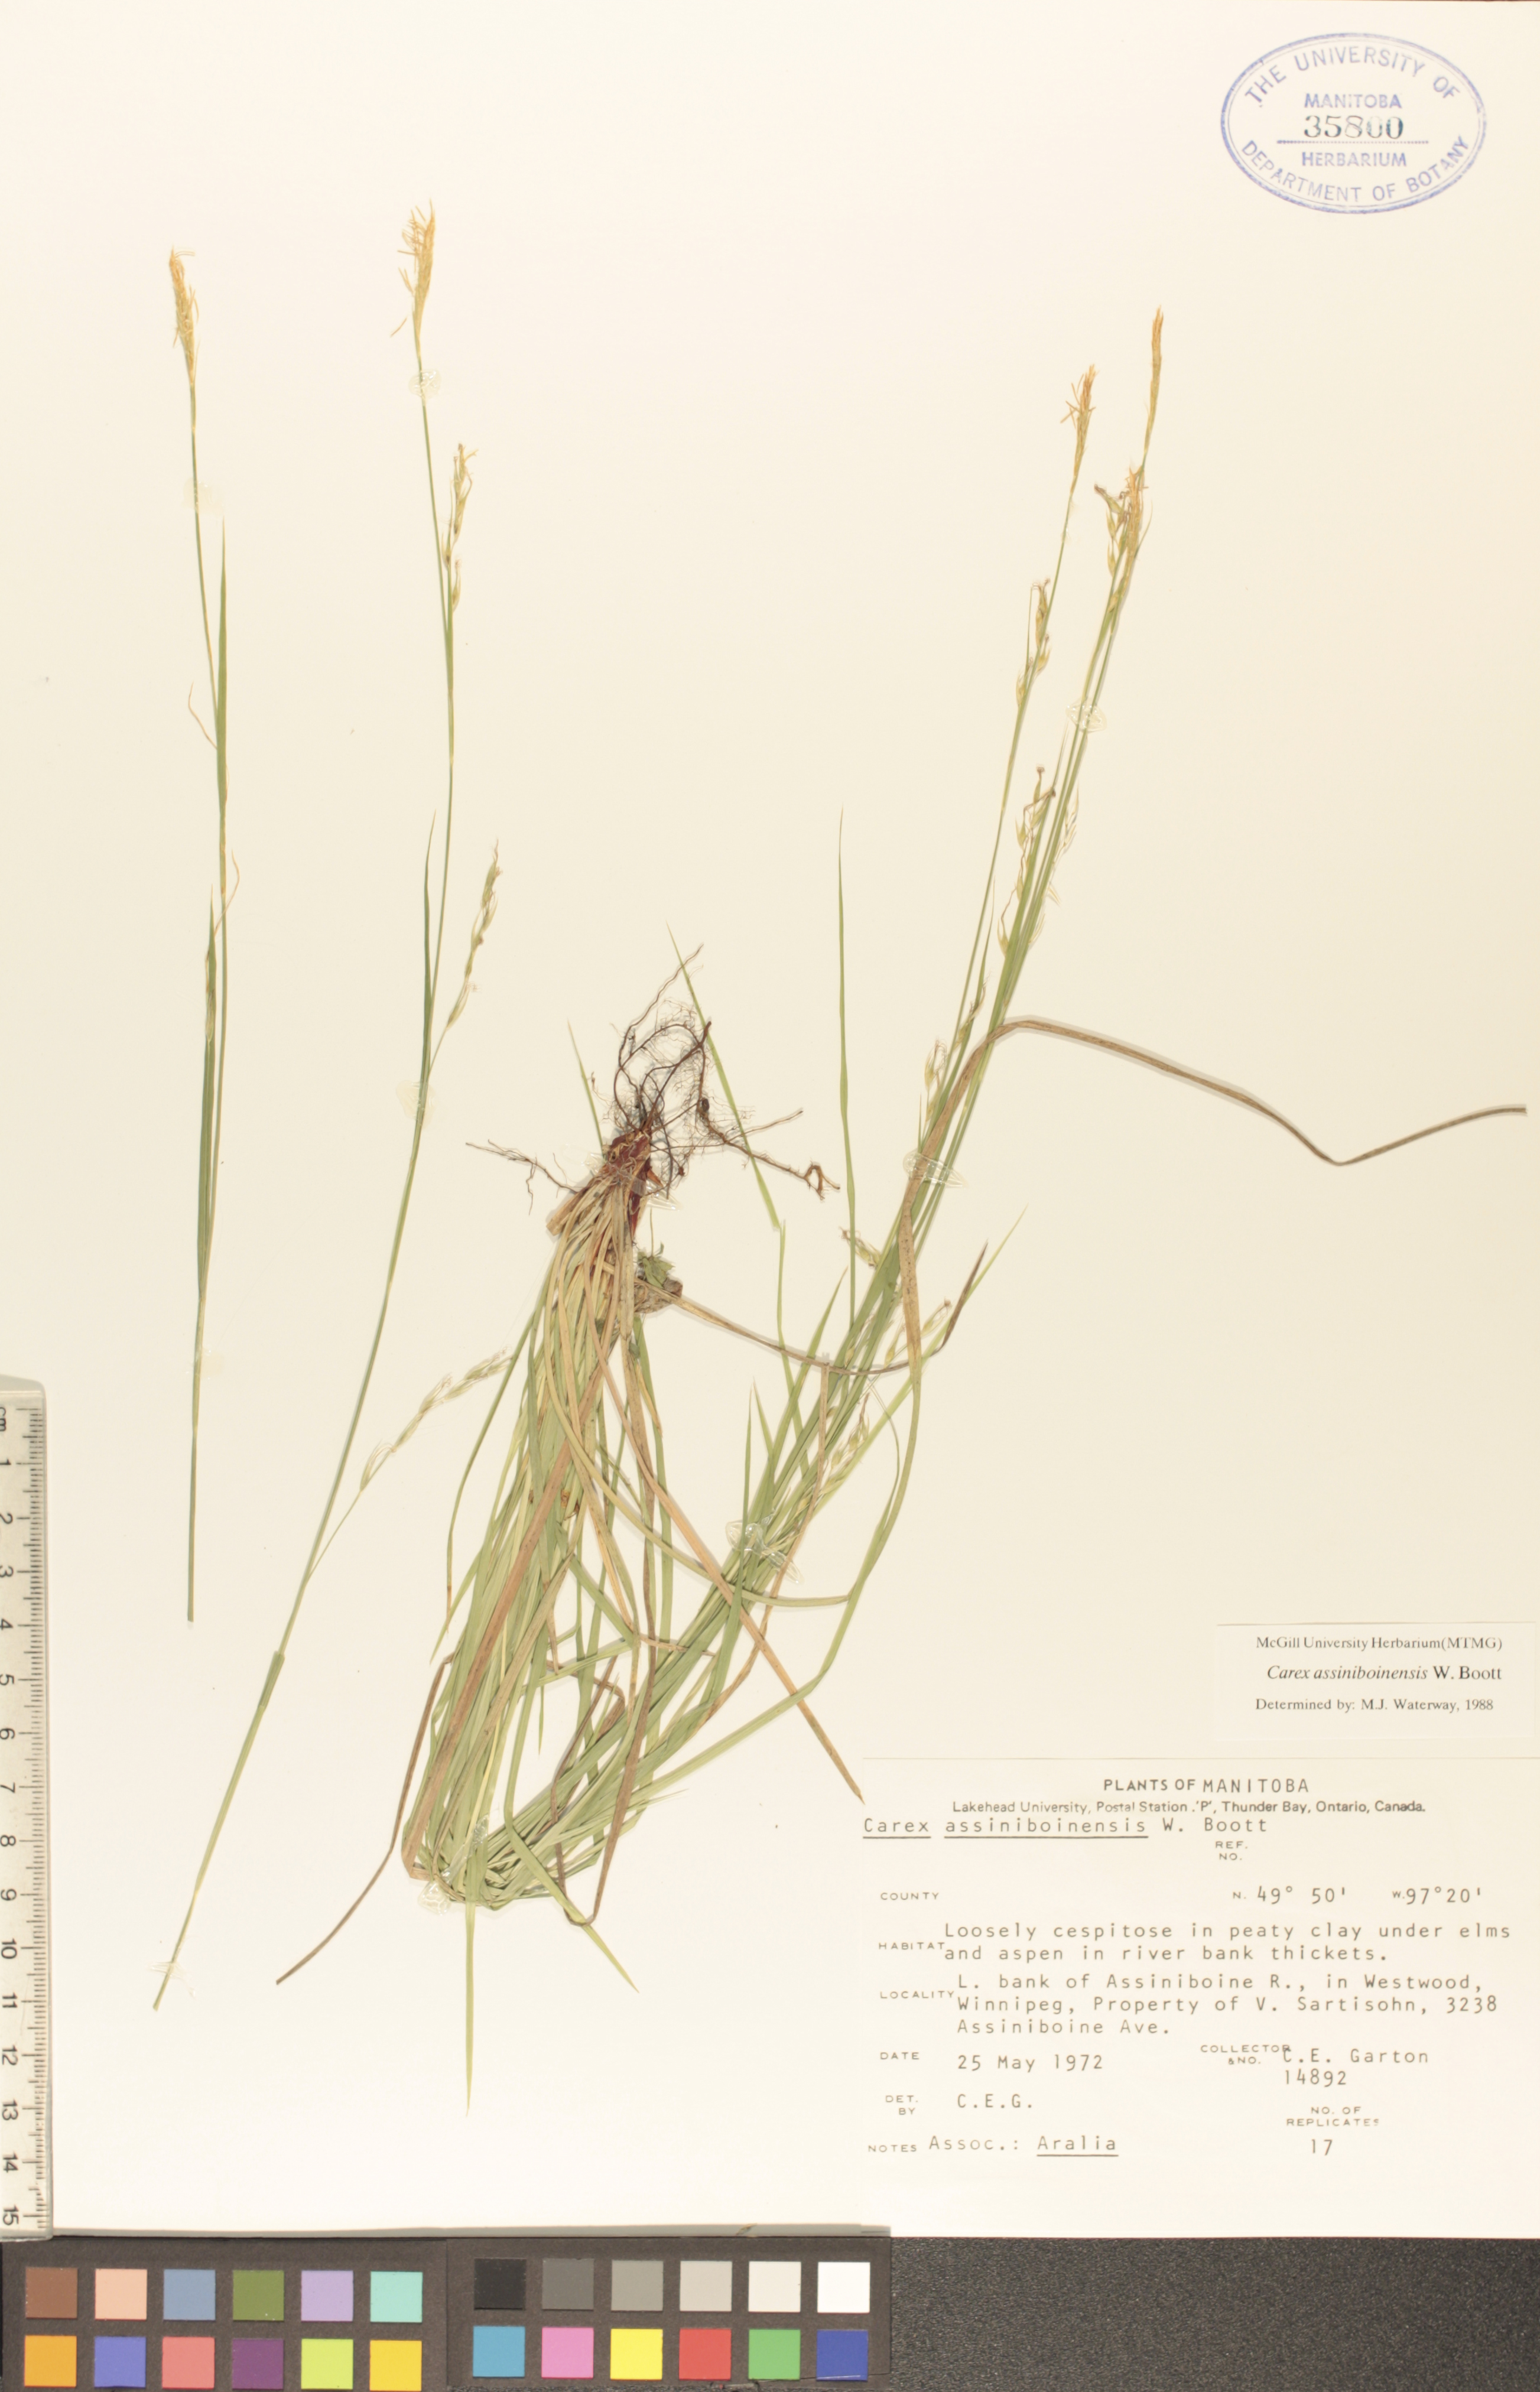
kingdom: Plantae
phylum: Tracheophyta
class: Liliopsida
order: Poales
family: Cyperaceae
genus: Carex
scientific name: Carex assiniboinensis
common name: Assiniboia sedge
